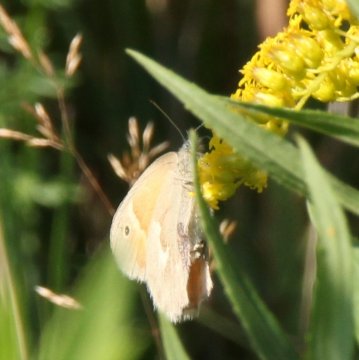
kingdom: Animalia
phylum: Arthropoda
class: Insecta
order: Lepidoptera
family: Nymphalidae
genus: Coenonympha
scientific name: Coenonympha tullia
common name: Large Heath
